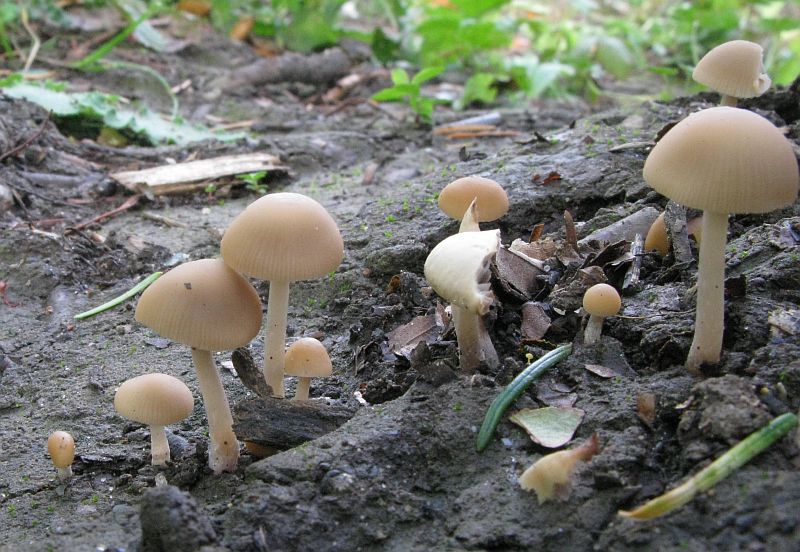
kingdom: Fungi
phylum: Basidiomycota
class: Agaricomycetes
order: Agaricales
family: Psathyrellaceae
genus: Psathyrella
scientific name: Psathyrella pseudogracilis
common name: slank mørkhat
